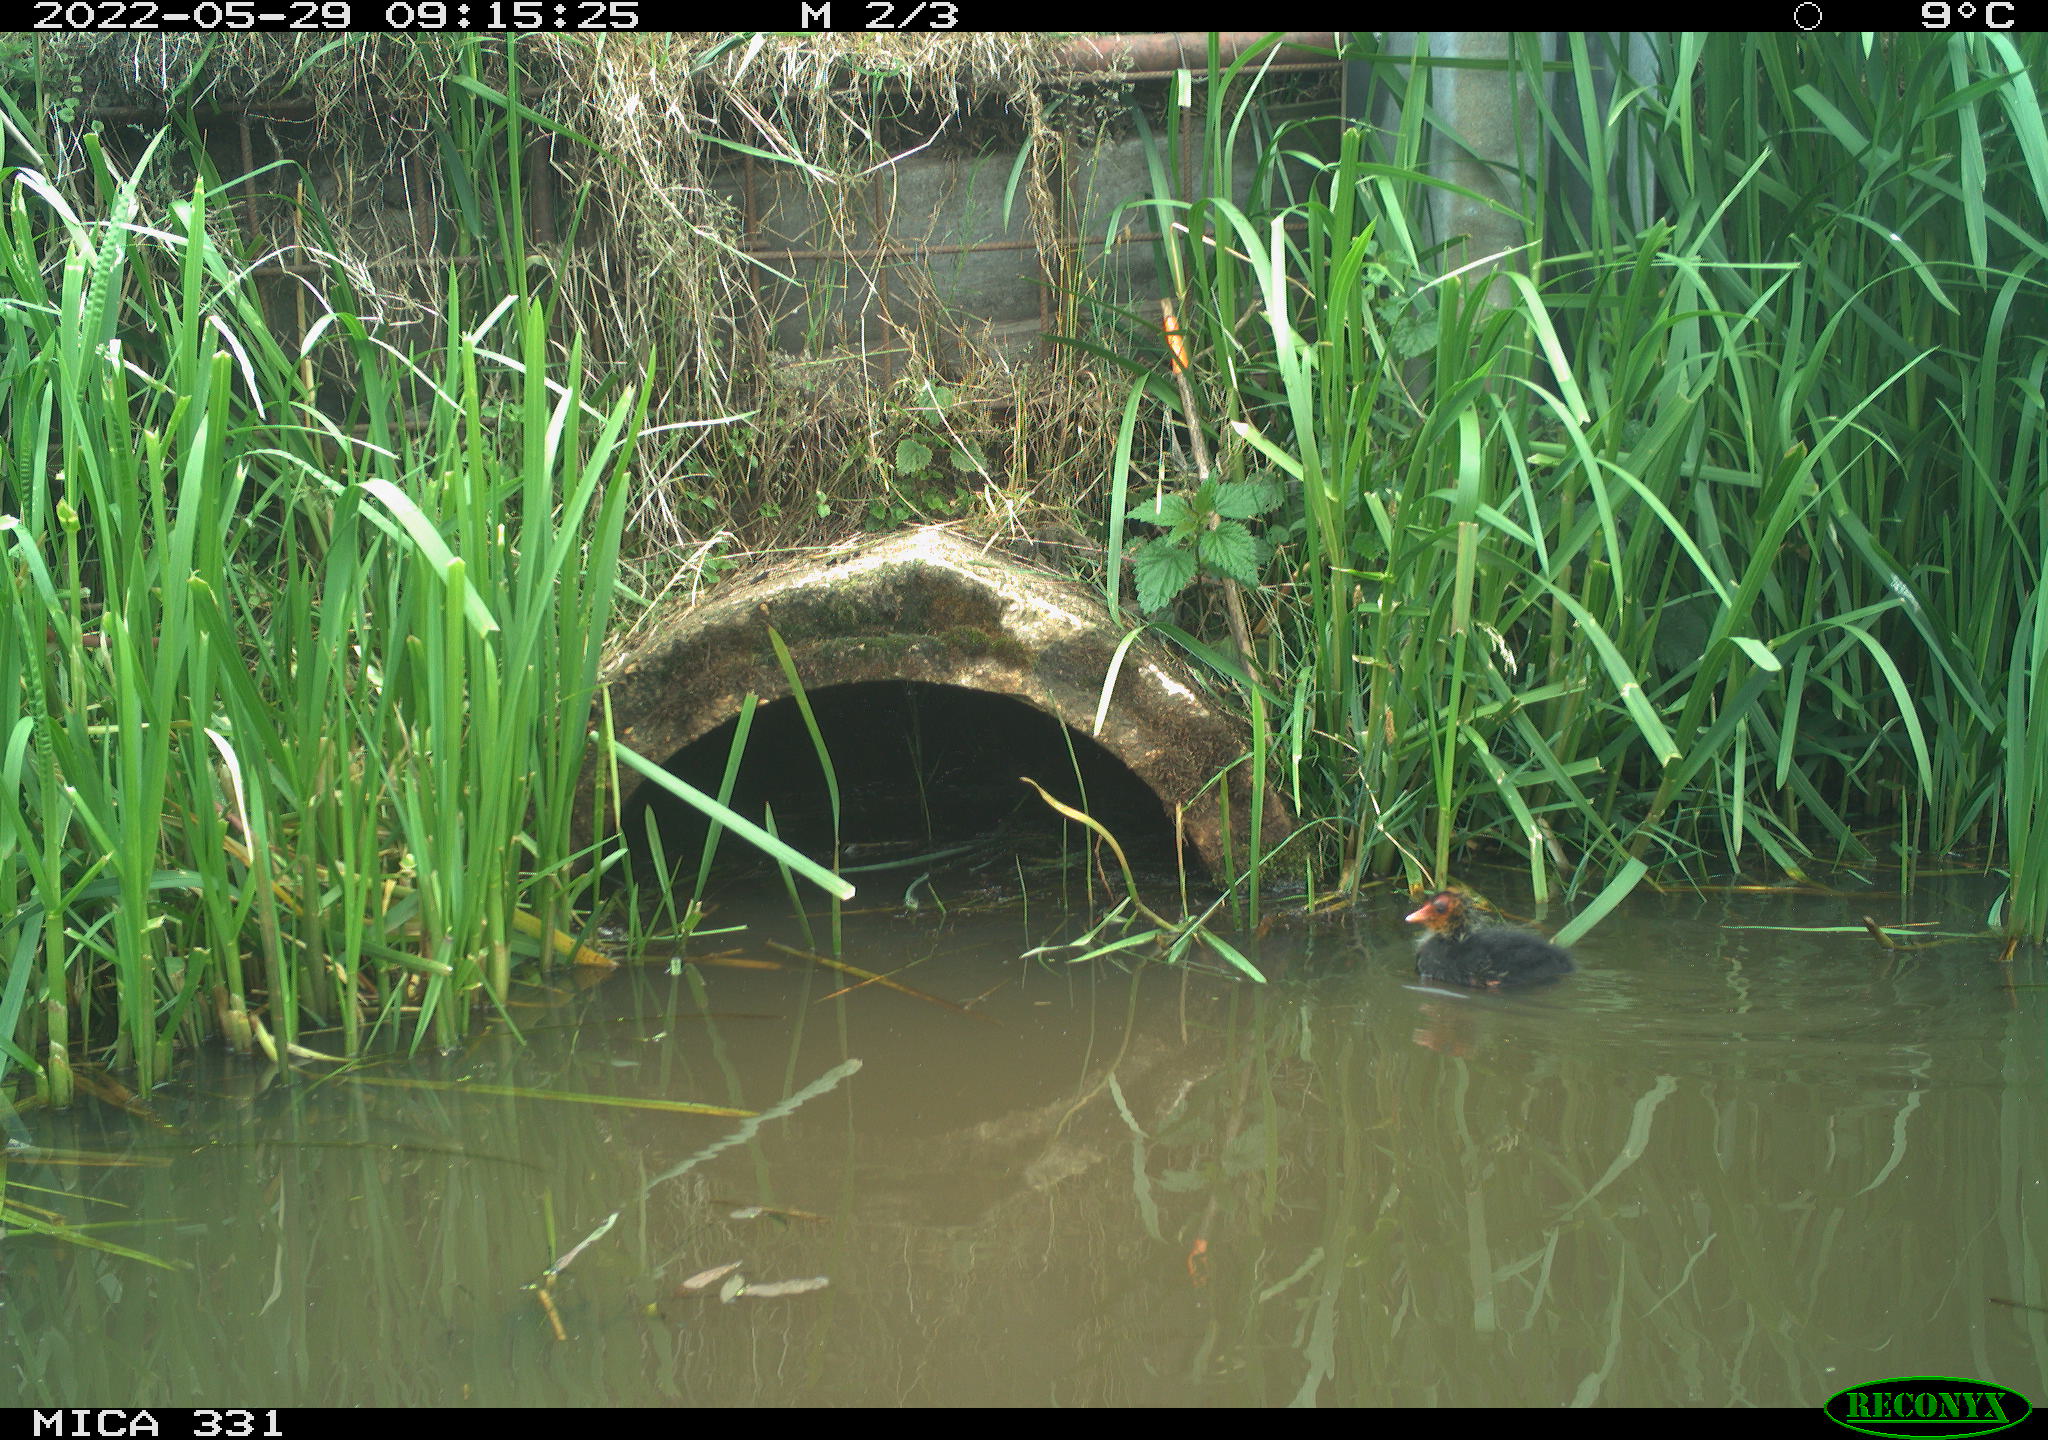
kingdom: Animalia
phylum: Chordata
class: Aves
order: Gruiformes
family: Rallidae
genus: Fulica
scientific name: Fulica atra
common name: Eurasian coot
